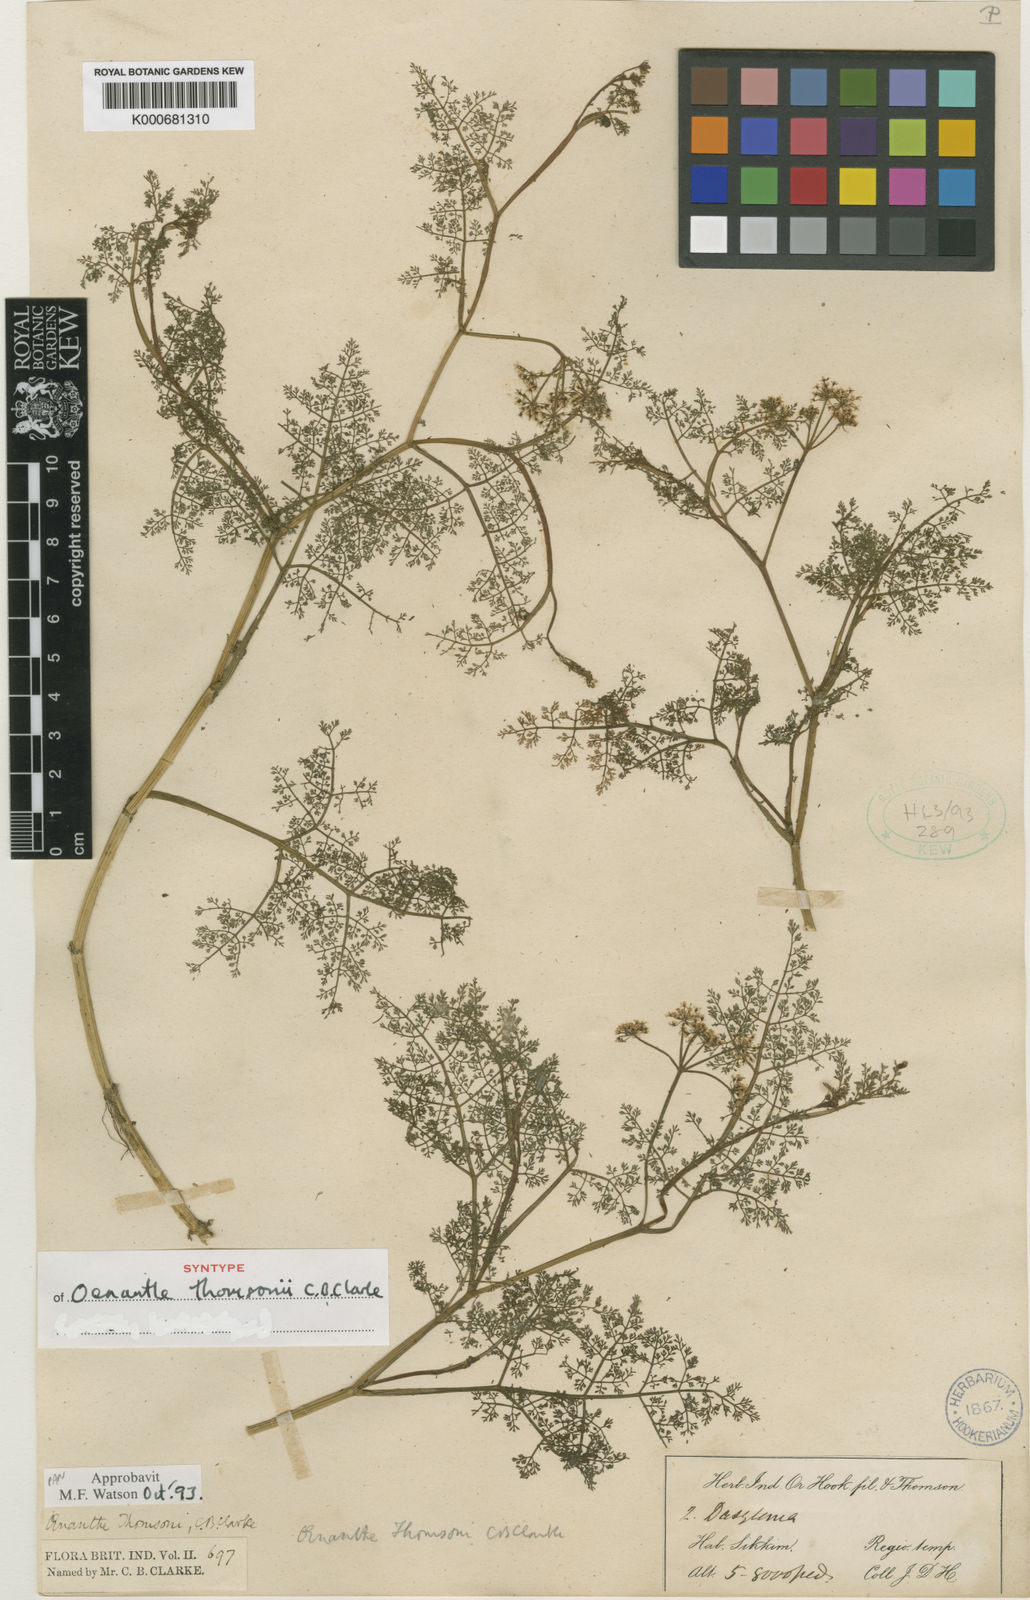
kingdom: Plantae
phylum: Tracheophyta
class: Magnoliopsida
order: Apiales
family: Apiaceae
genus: Oenanthe
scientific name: Oenanthe thomsonii
